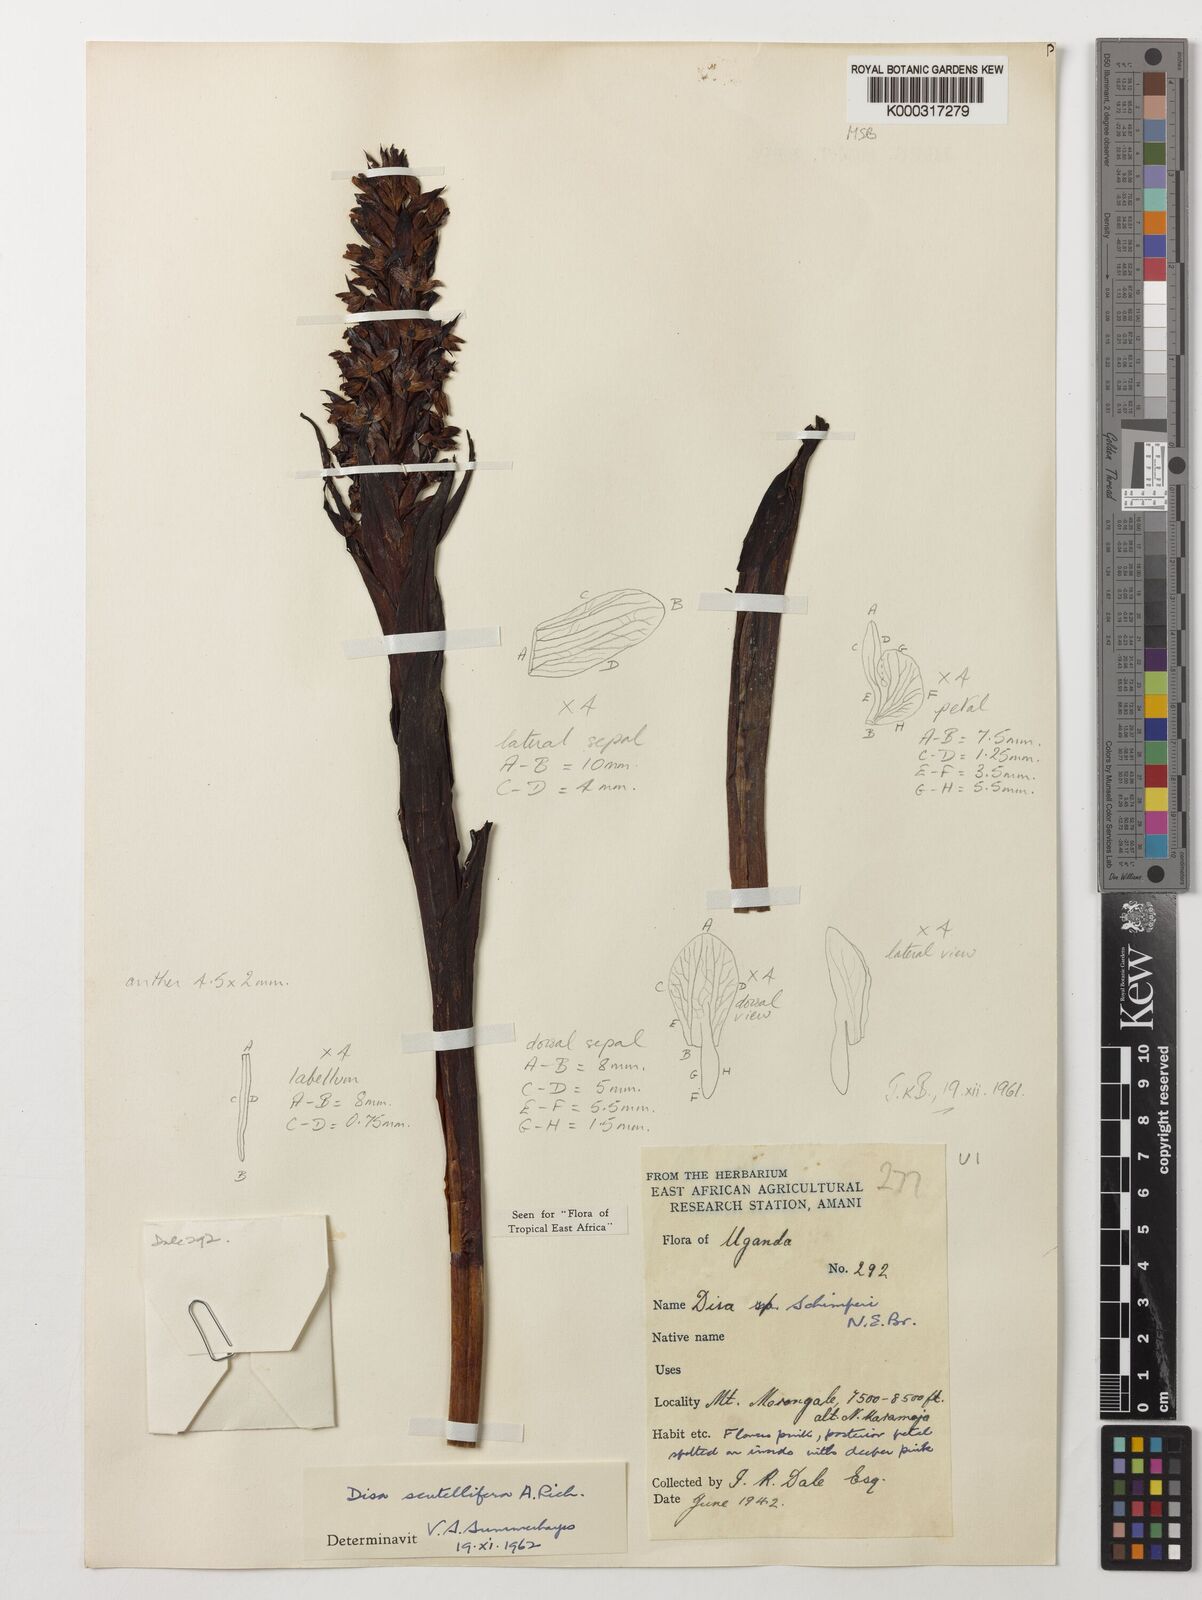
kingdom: Plantae
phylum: Tracheophyta
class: Liliopsida
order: Asparagales
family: Orchidaceae
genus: Disa
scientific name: Disa scutellifera
